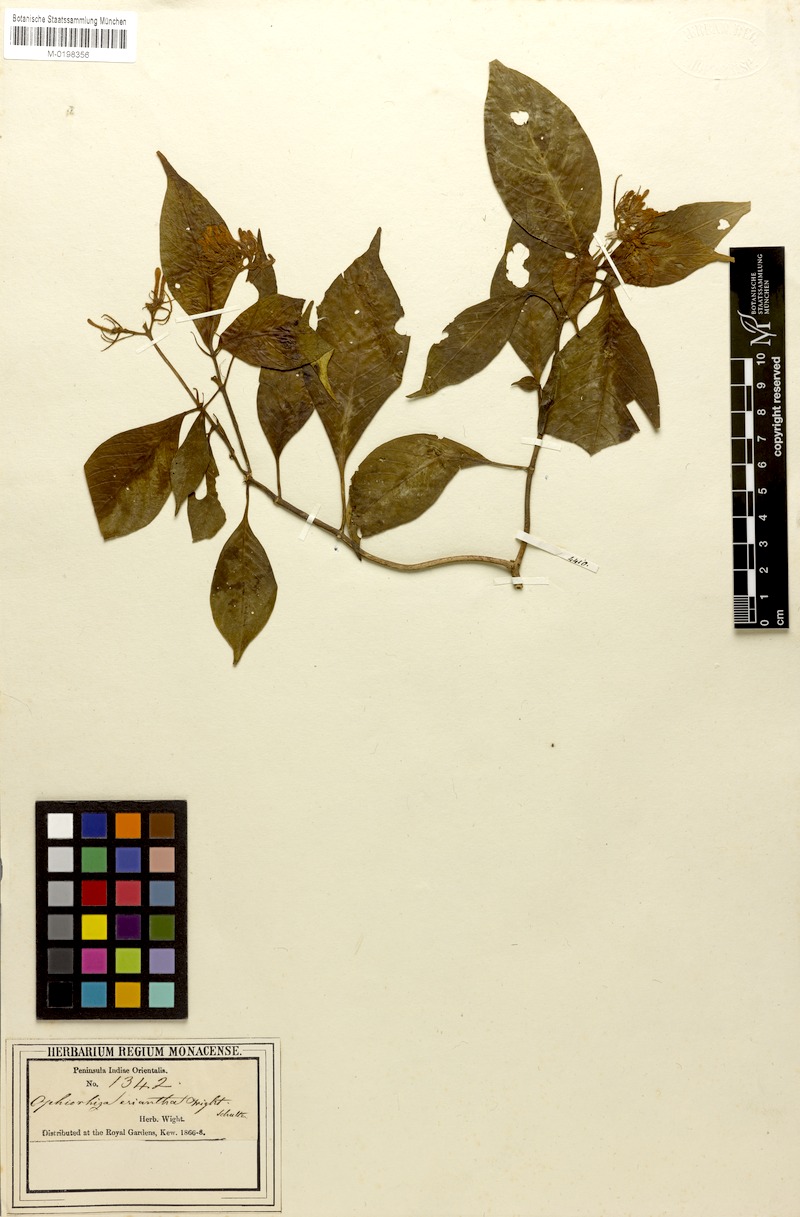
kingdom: Plantae
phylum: Tracheophyta
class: Magnoliopsida
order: Gentianales
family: Rubiaceae
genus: Ophiorrhiza
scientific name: Ophiorrhiza eriantha
